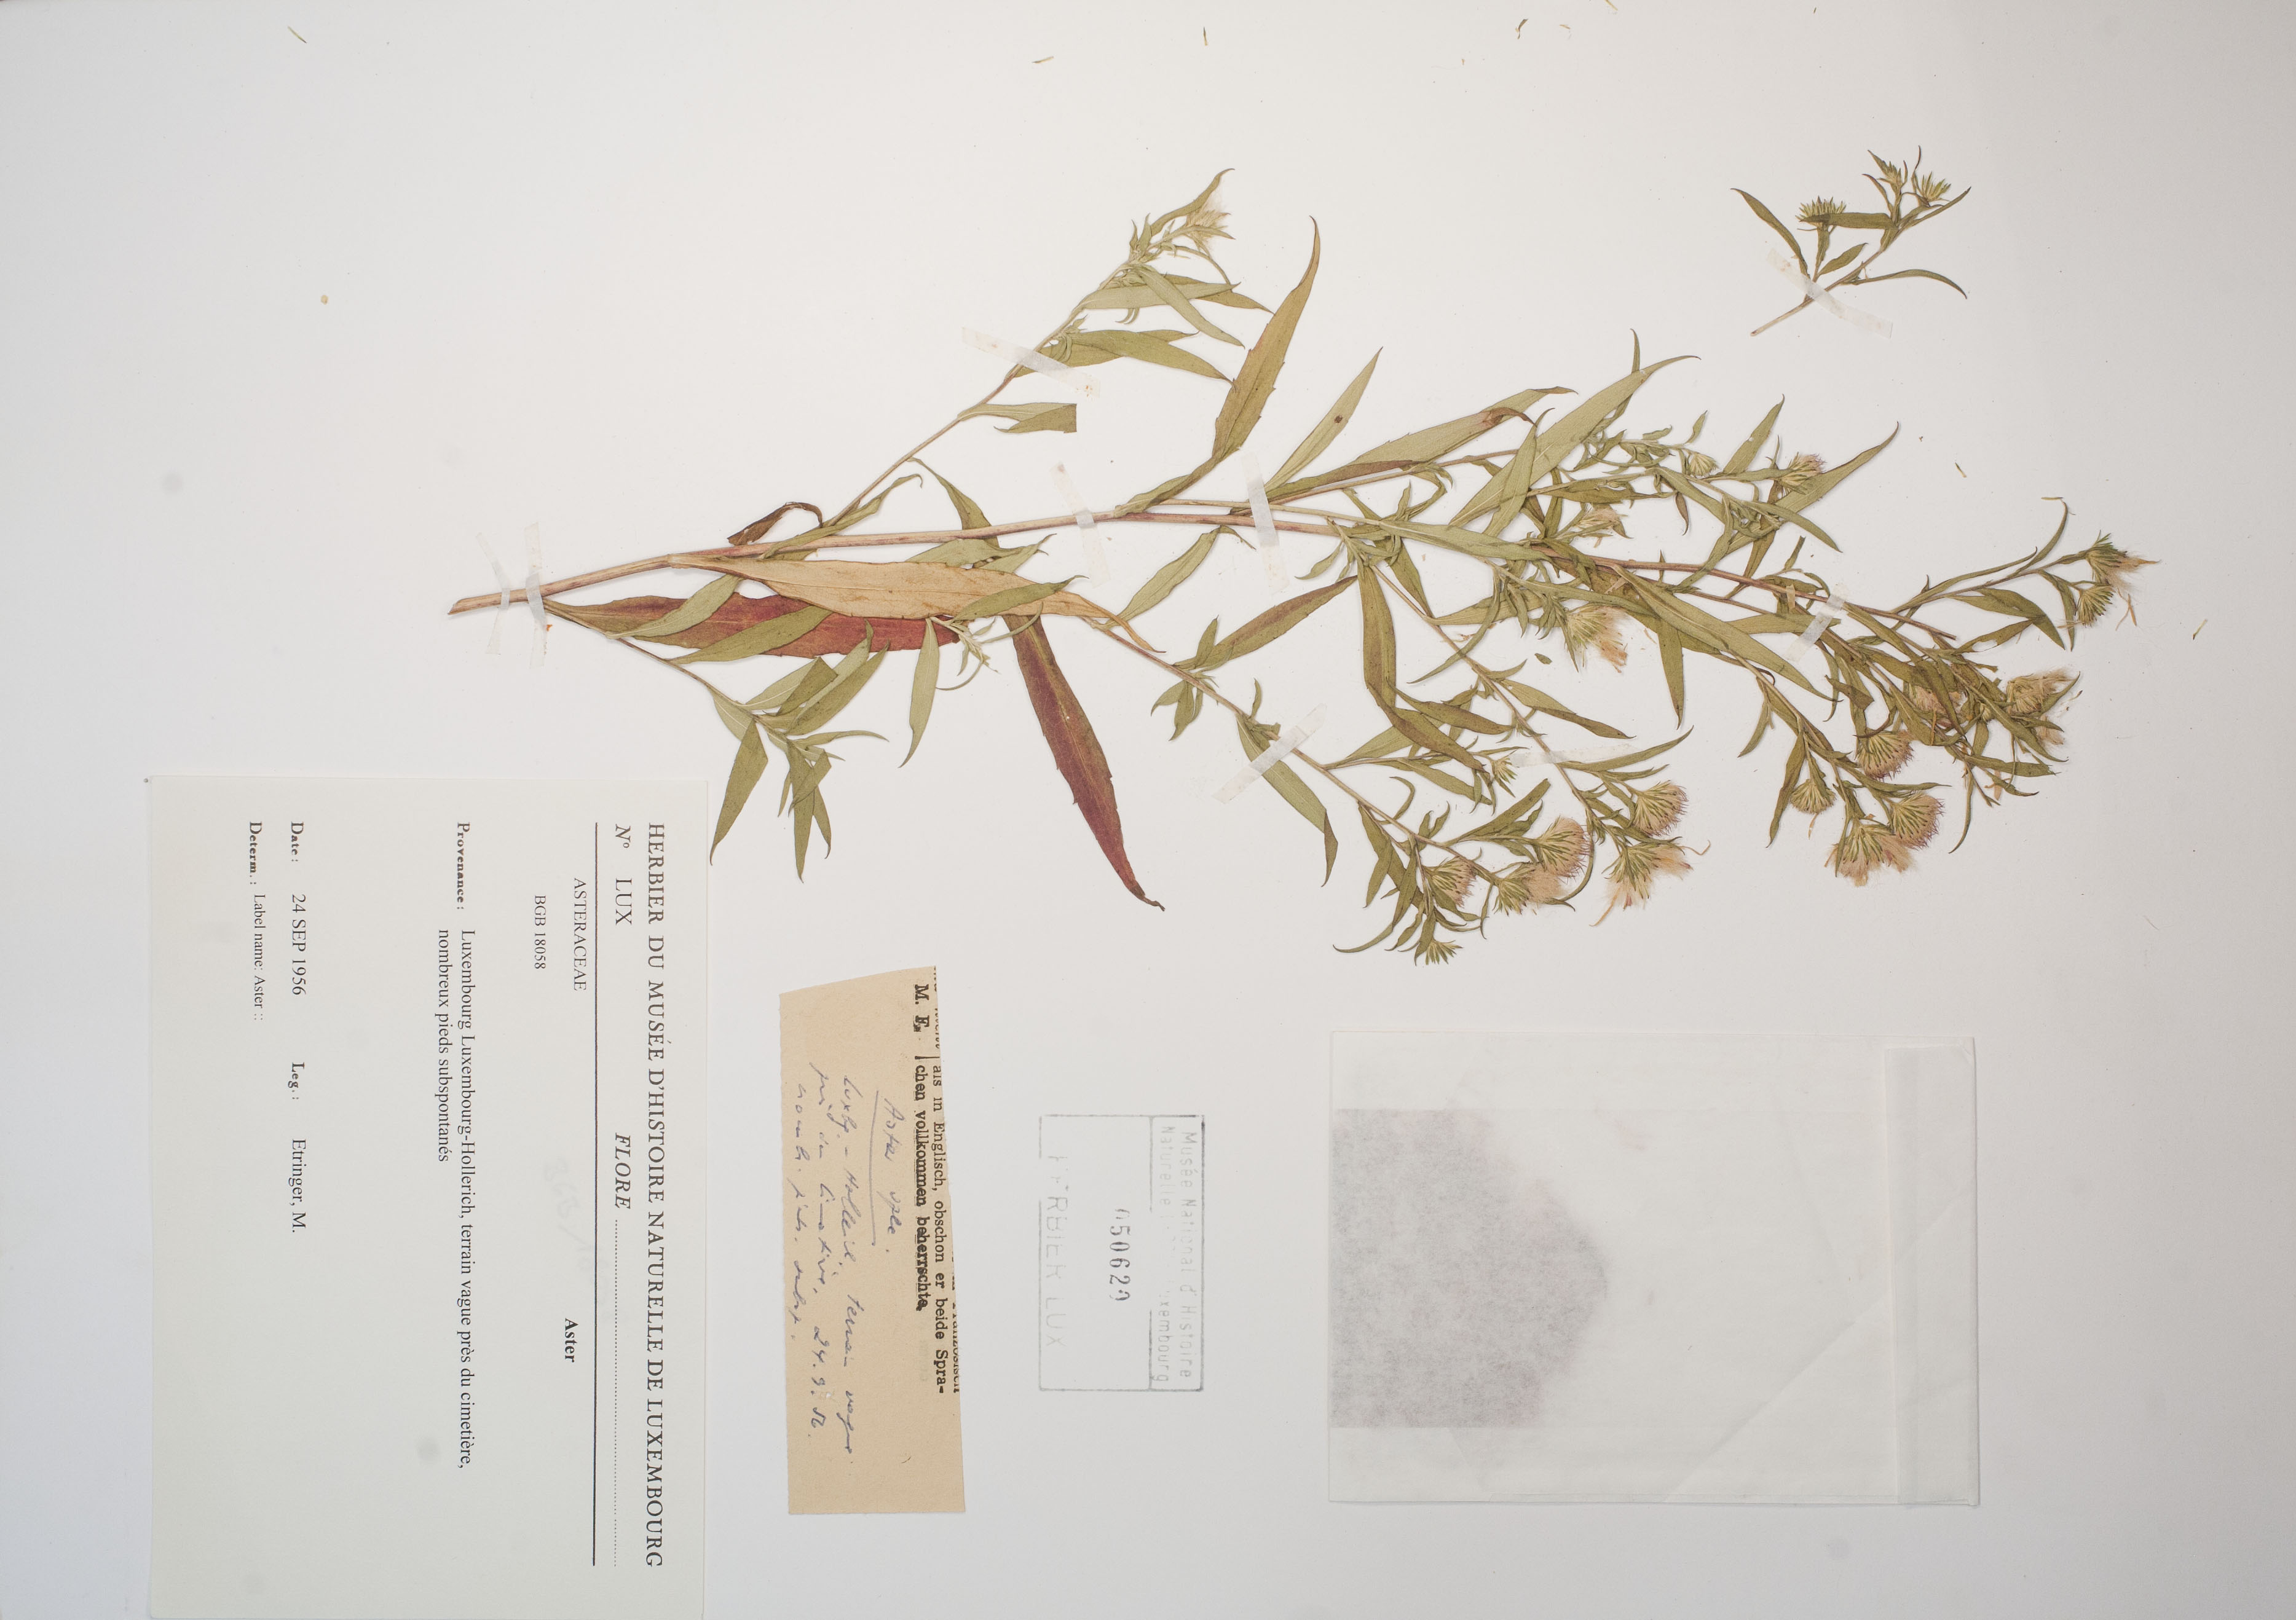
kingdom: Plantae
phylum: Tracheophyta
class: Magnoliopsida
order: Asterales
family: Asteraceae
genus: Aster
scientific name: Aster
